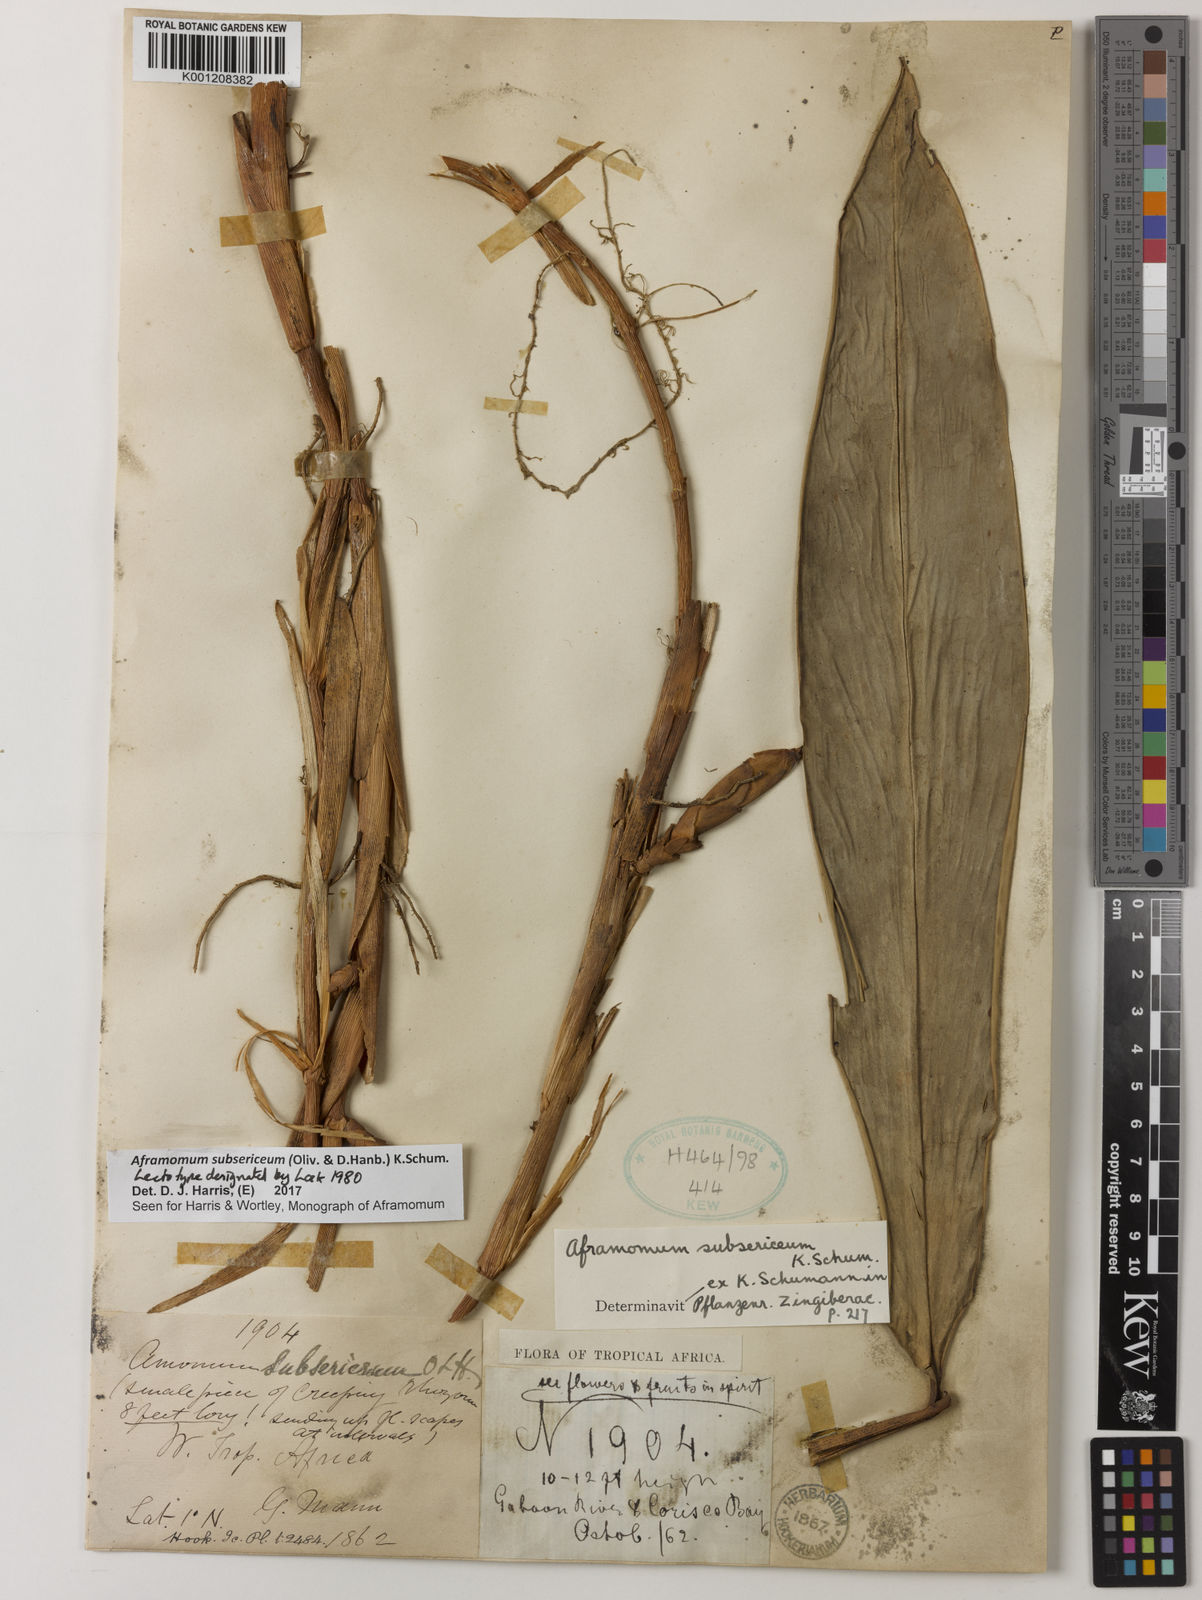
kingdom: Plantae
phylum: Tracheophyta
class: Liliopsida
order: Zingiberales
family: Zingiberaceae
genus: Aframomum
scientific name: Aframomum subsericeum
